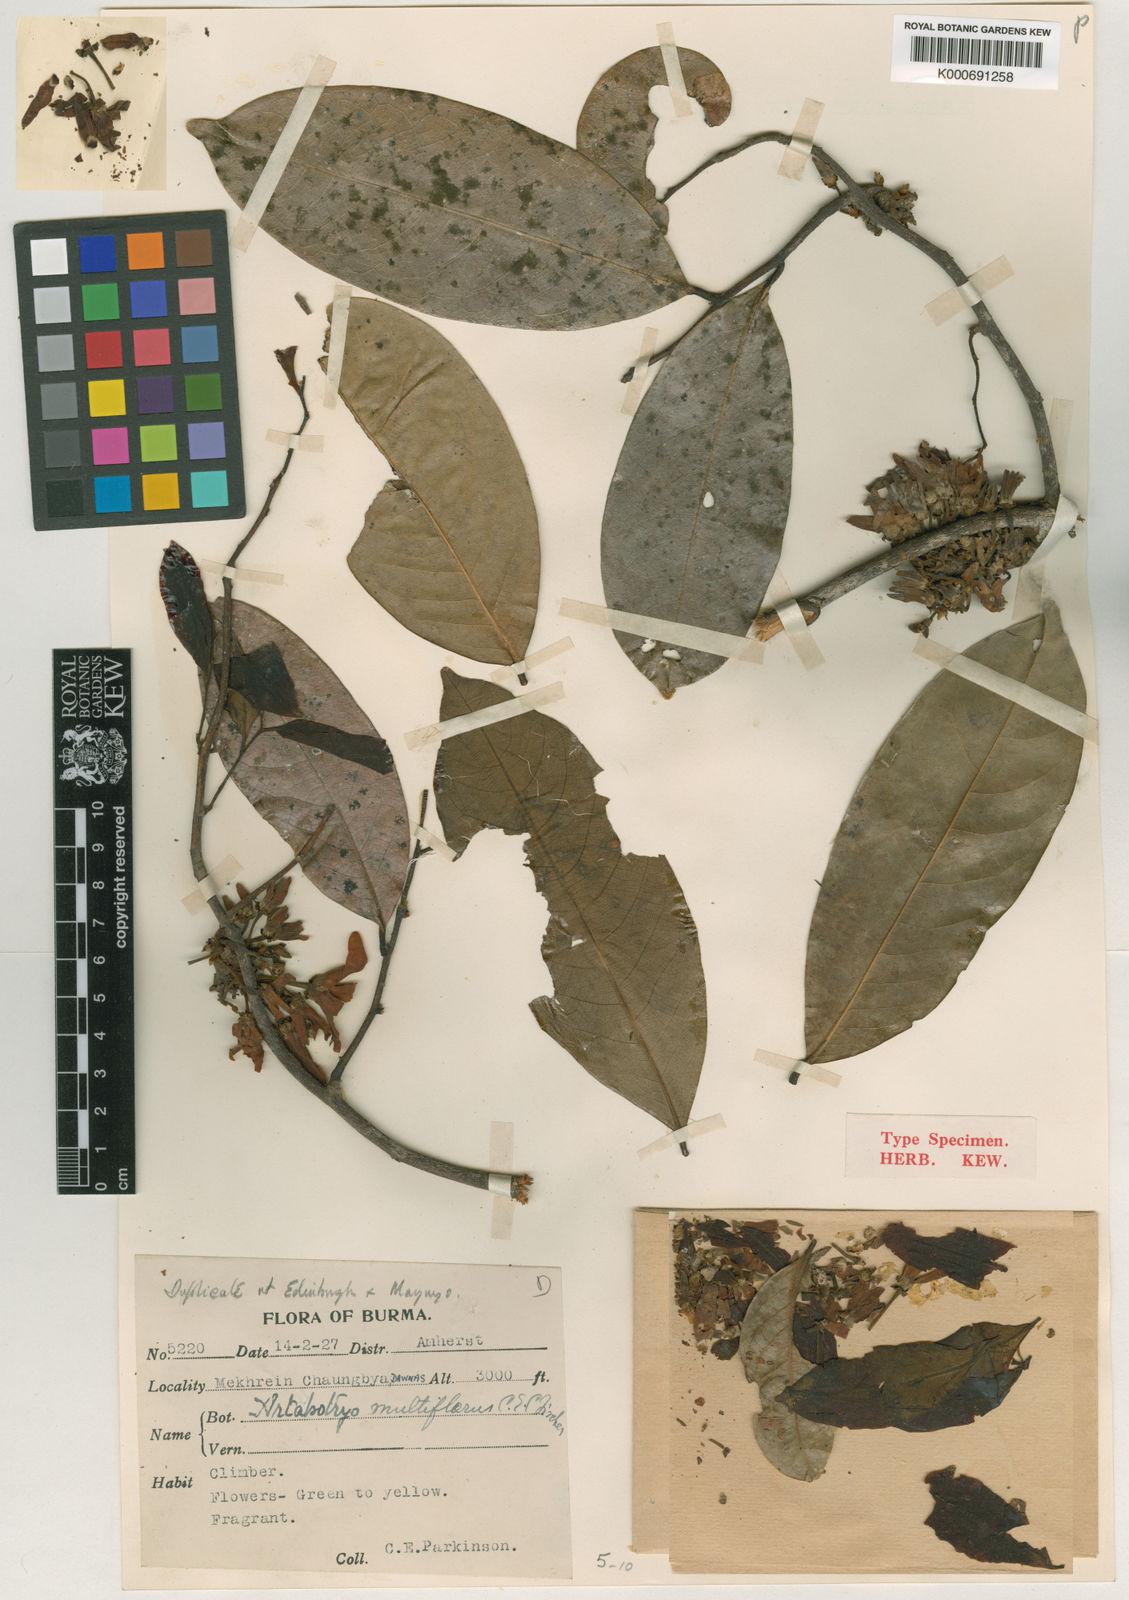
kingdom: Plantae
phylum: Tracheophyta
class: Magnoliopsida
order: Magnoliales
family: Annonaceae
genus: Artabotrys
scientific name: Artabotrys multiflorus
